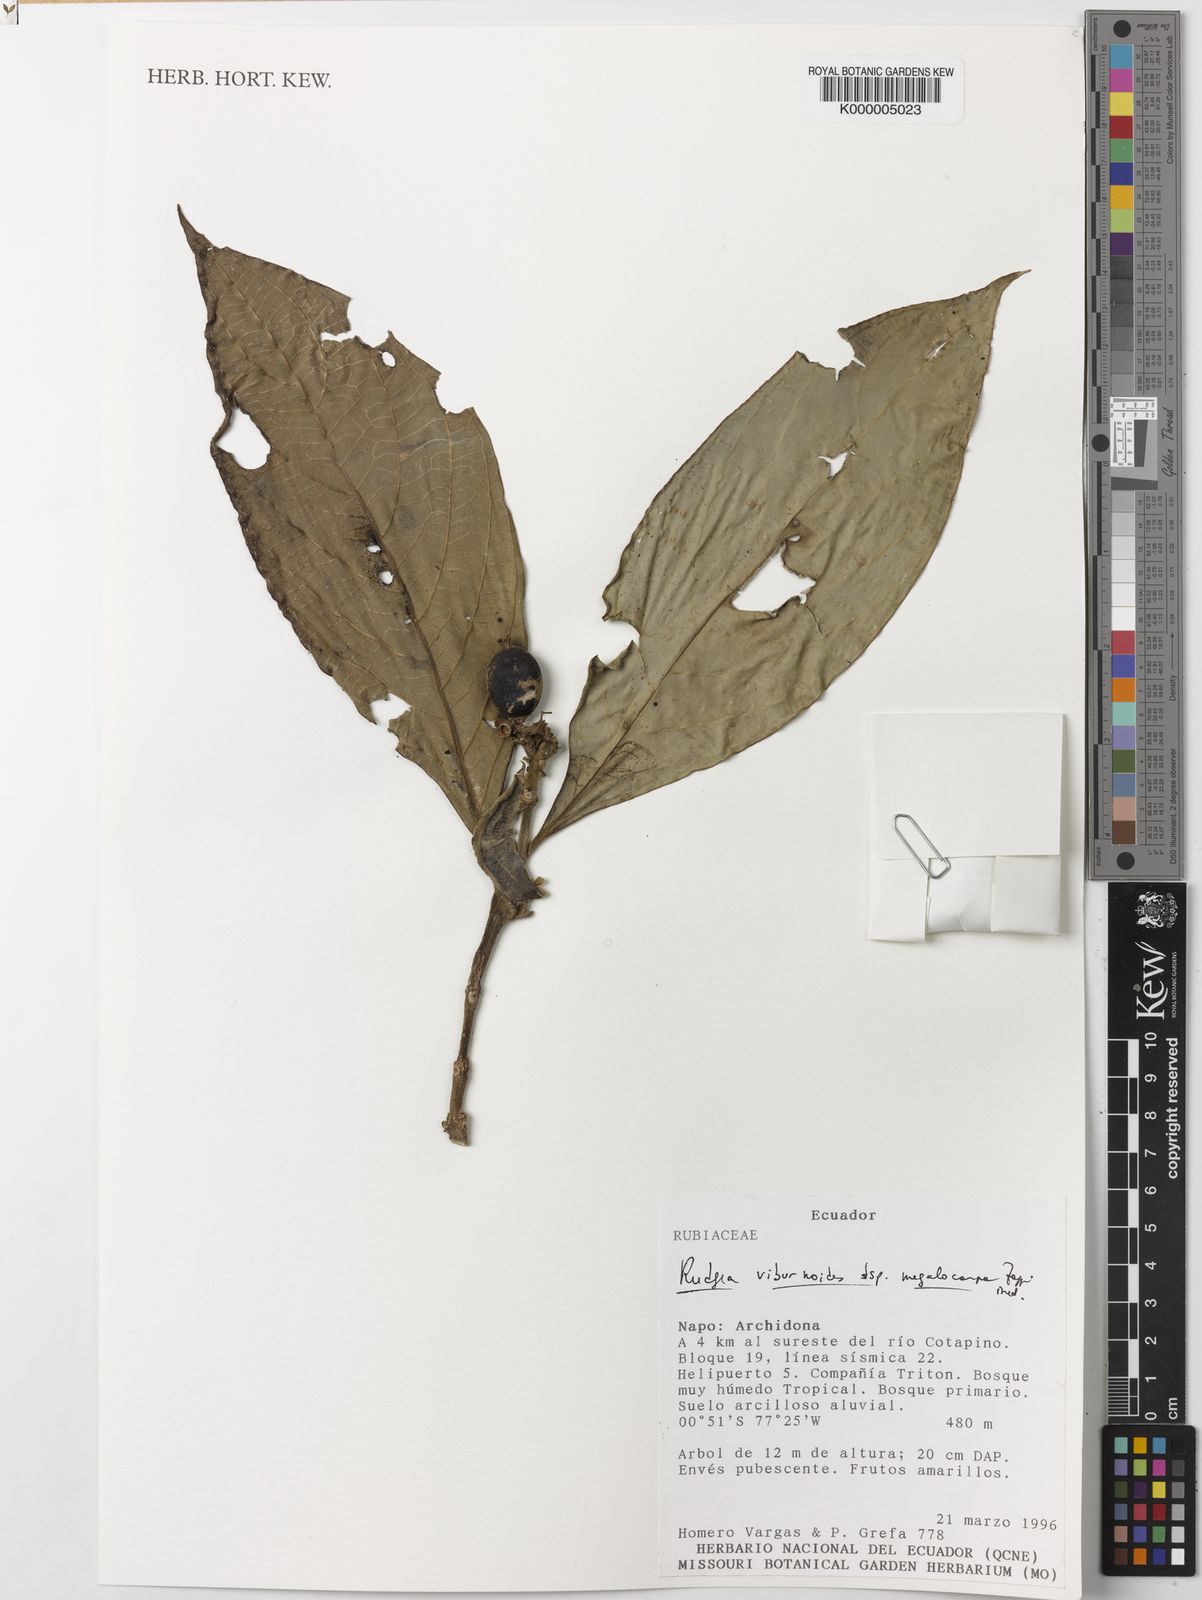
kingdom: Plantae
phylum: Tracheophyta
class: Magnoliopsida
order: Gentianales
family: Rubiaceae
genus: Rudgea
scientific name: Rudgea viburnoides
